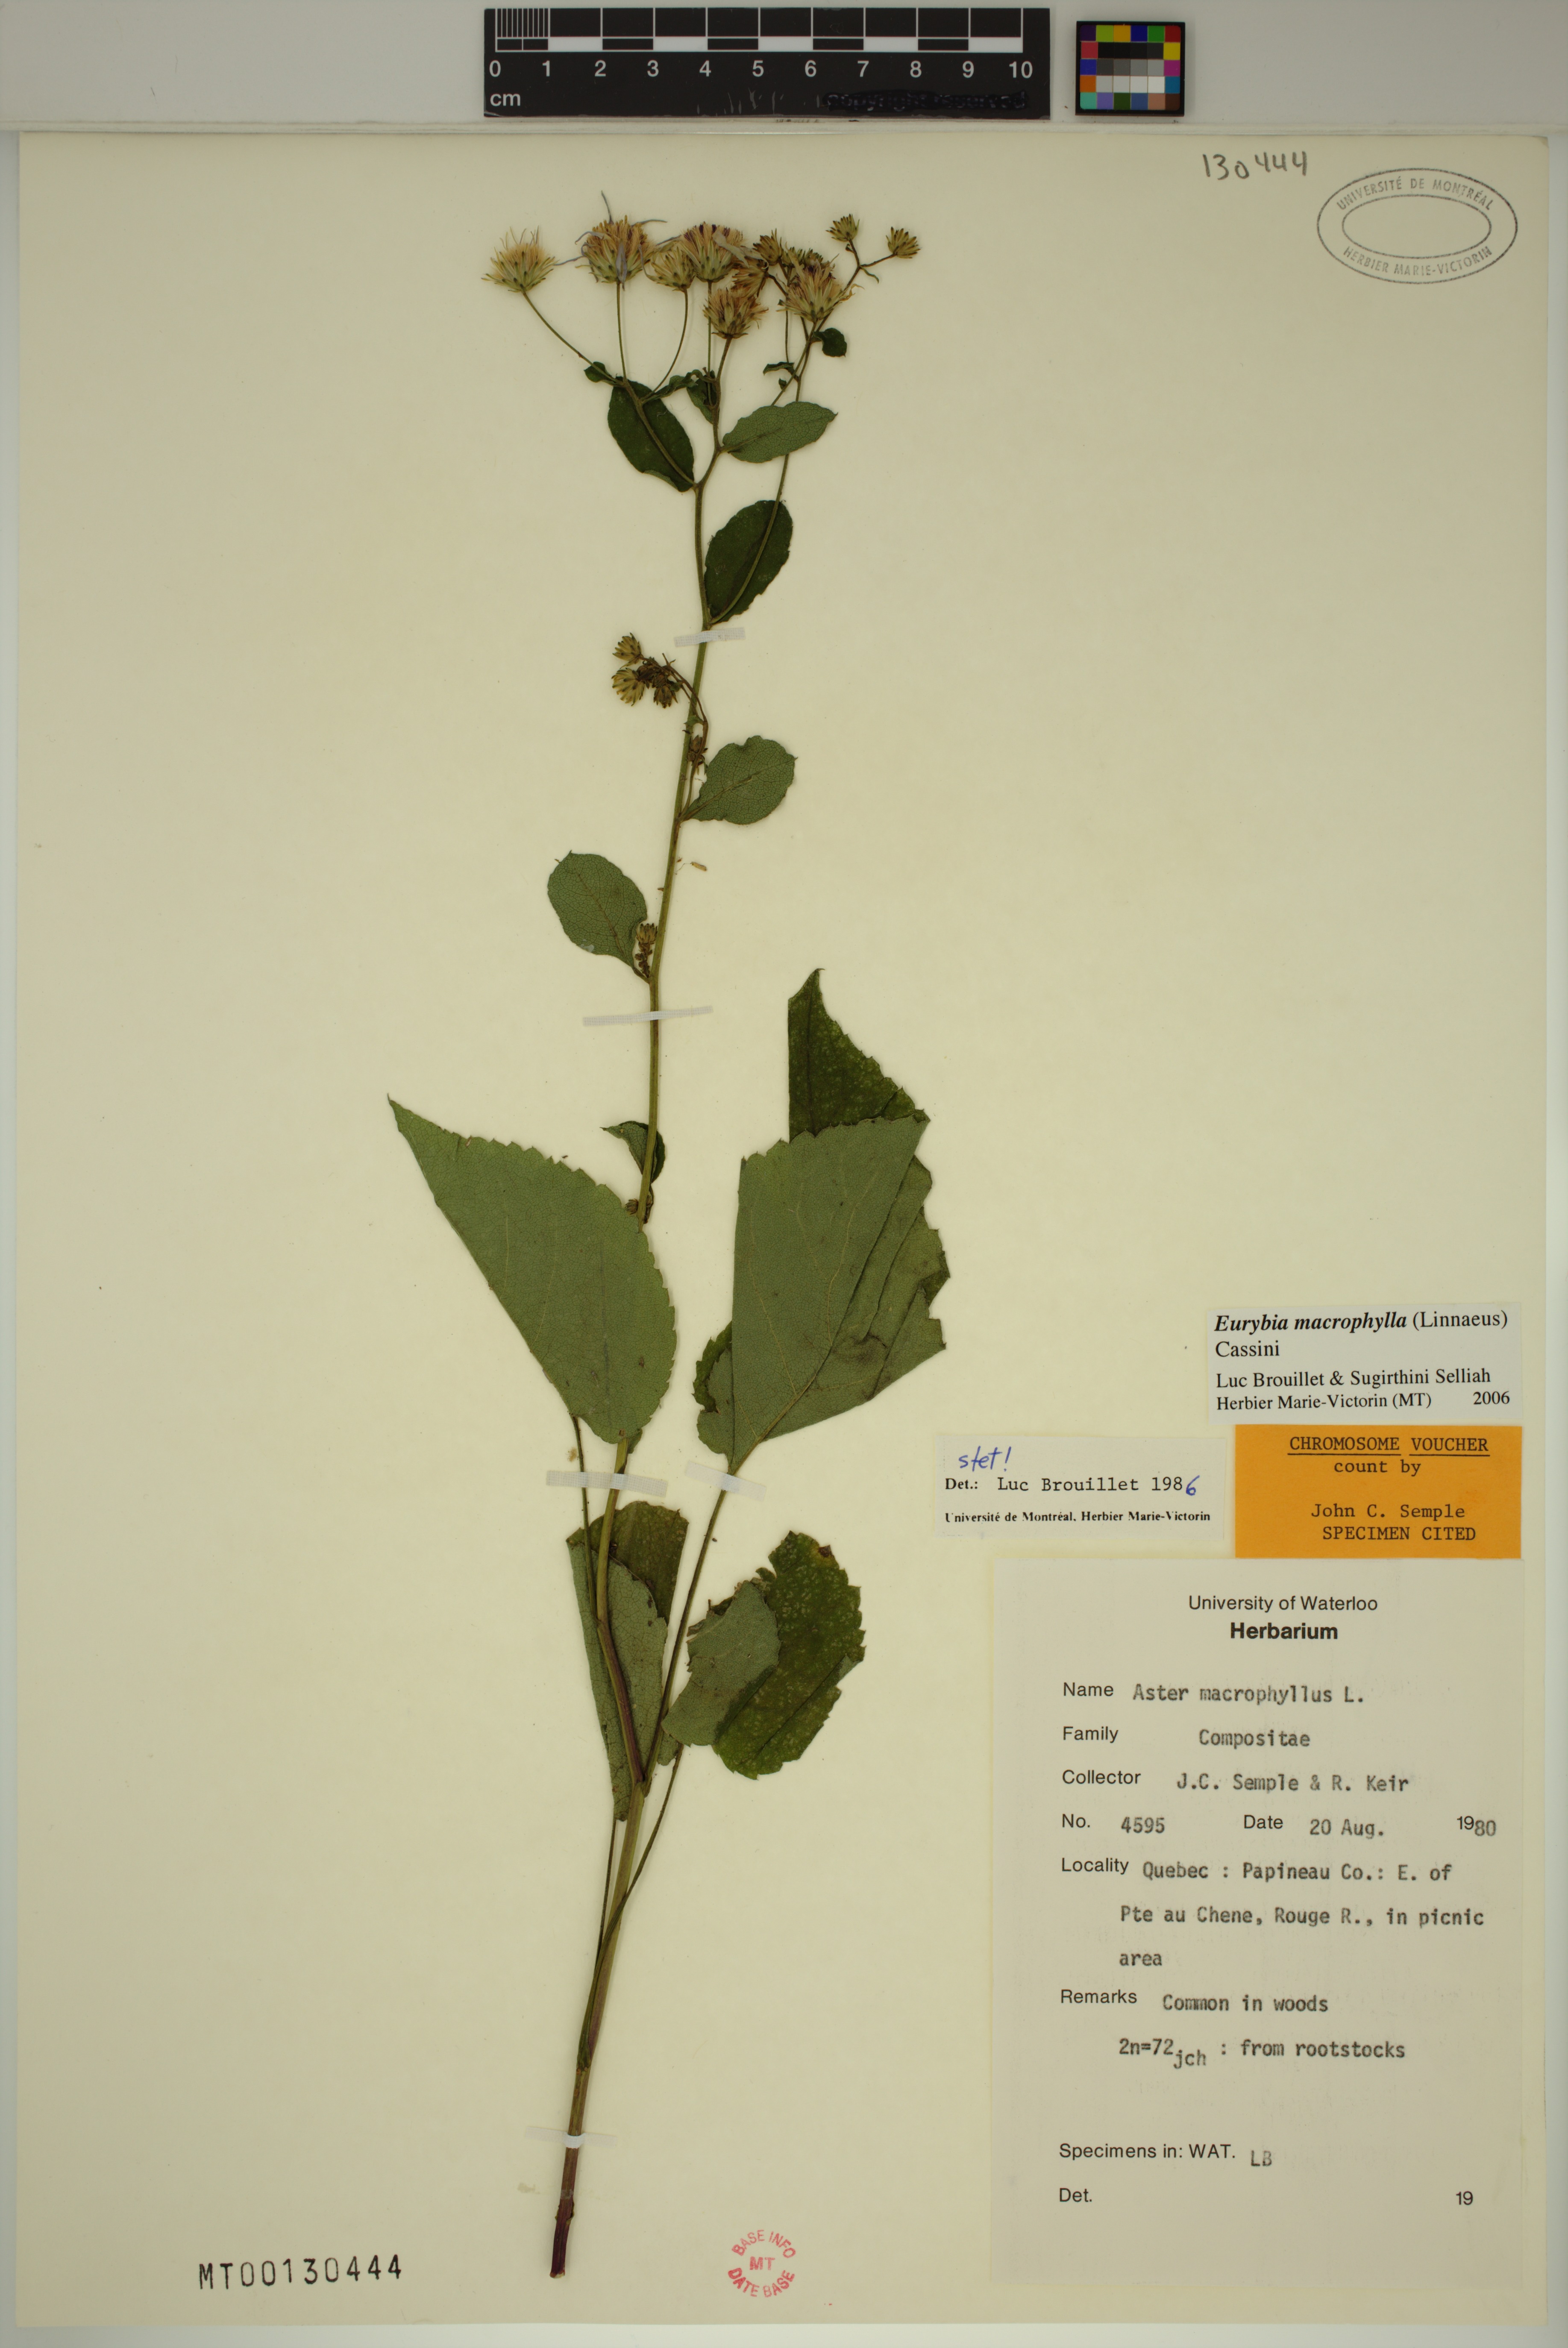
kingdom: Plantae
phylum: Tracheophyta
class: Magnoliopsida
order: Asterales
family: Asteraceae
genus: Eurybia
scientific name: Eurybia macrophylla
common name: Big-leaved aster
